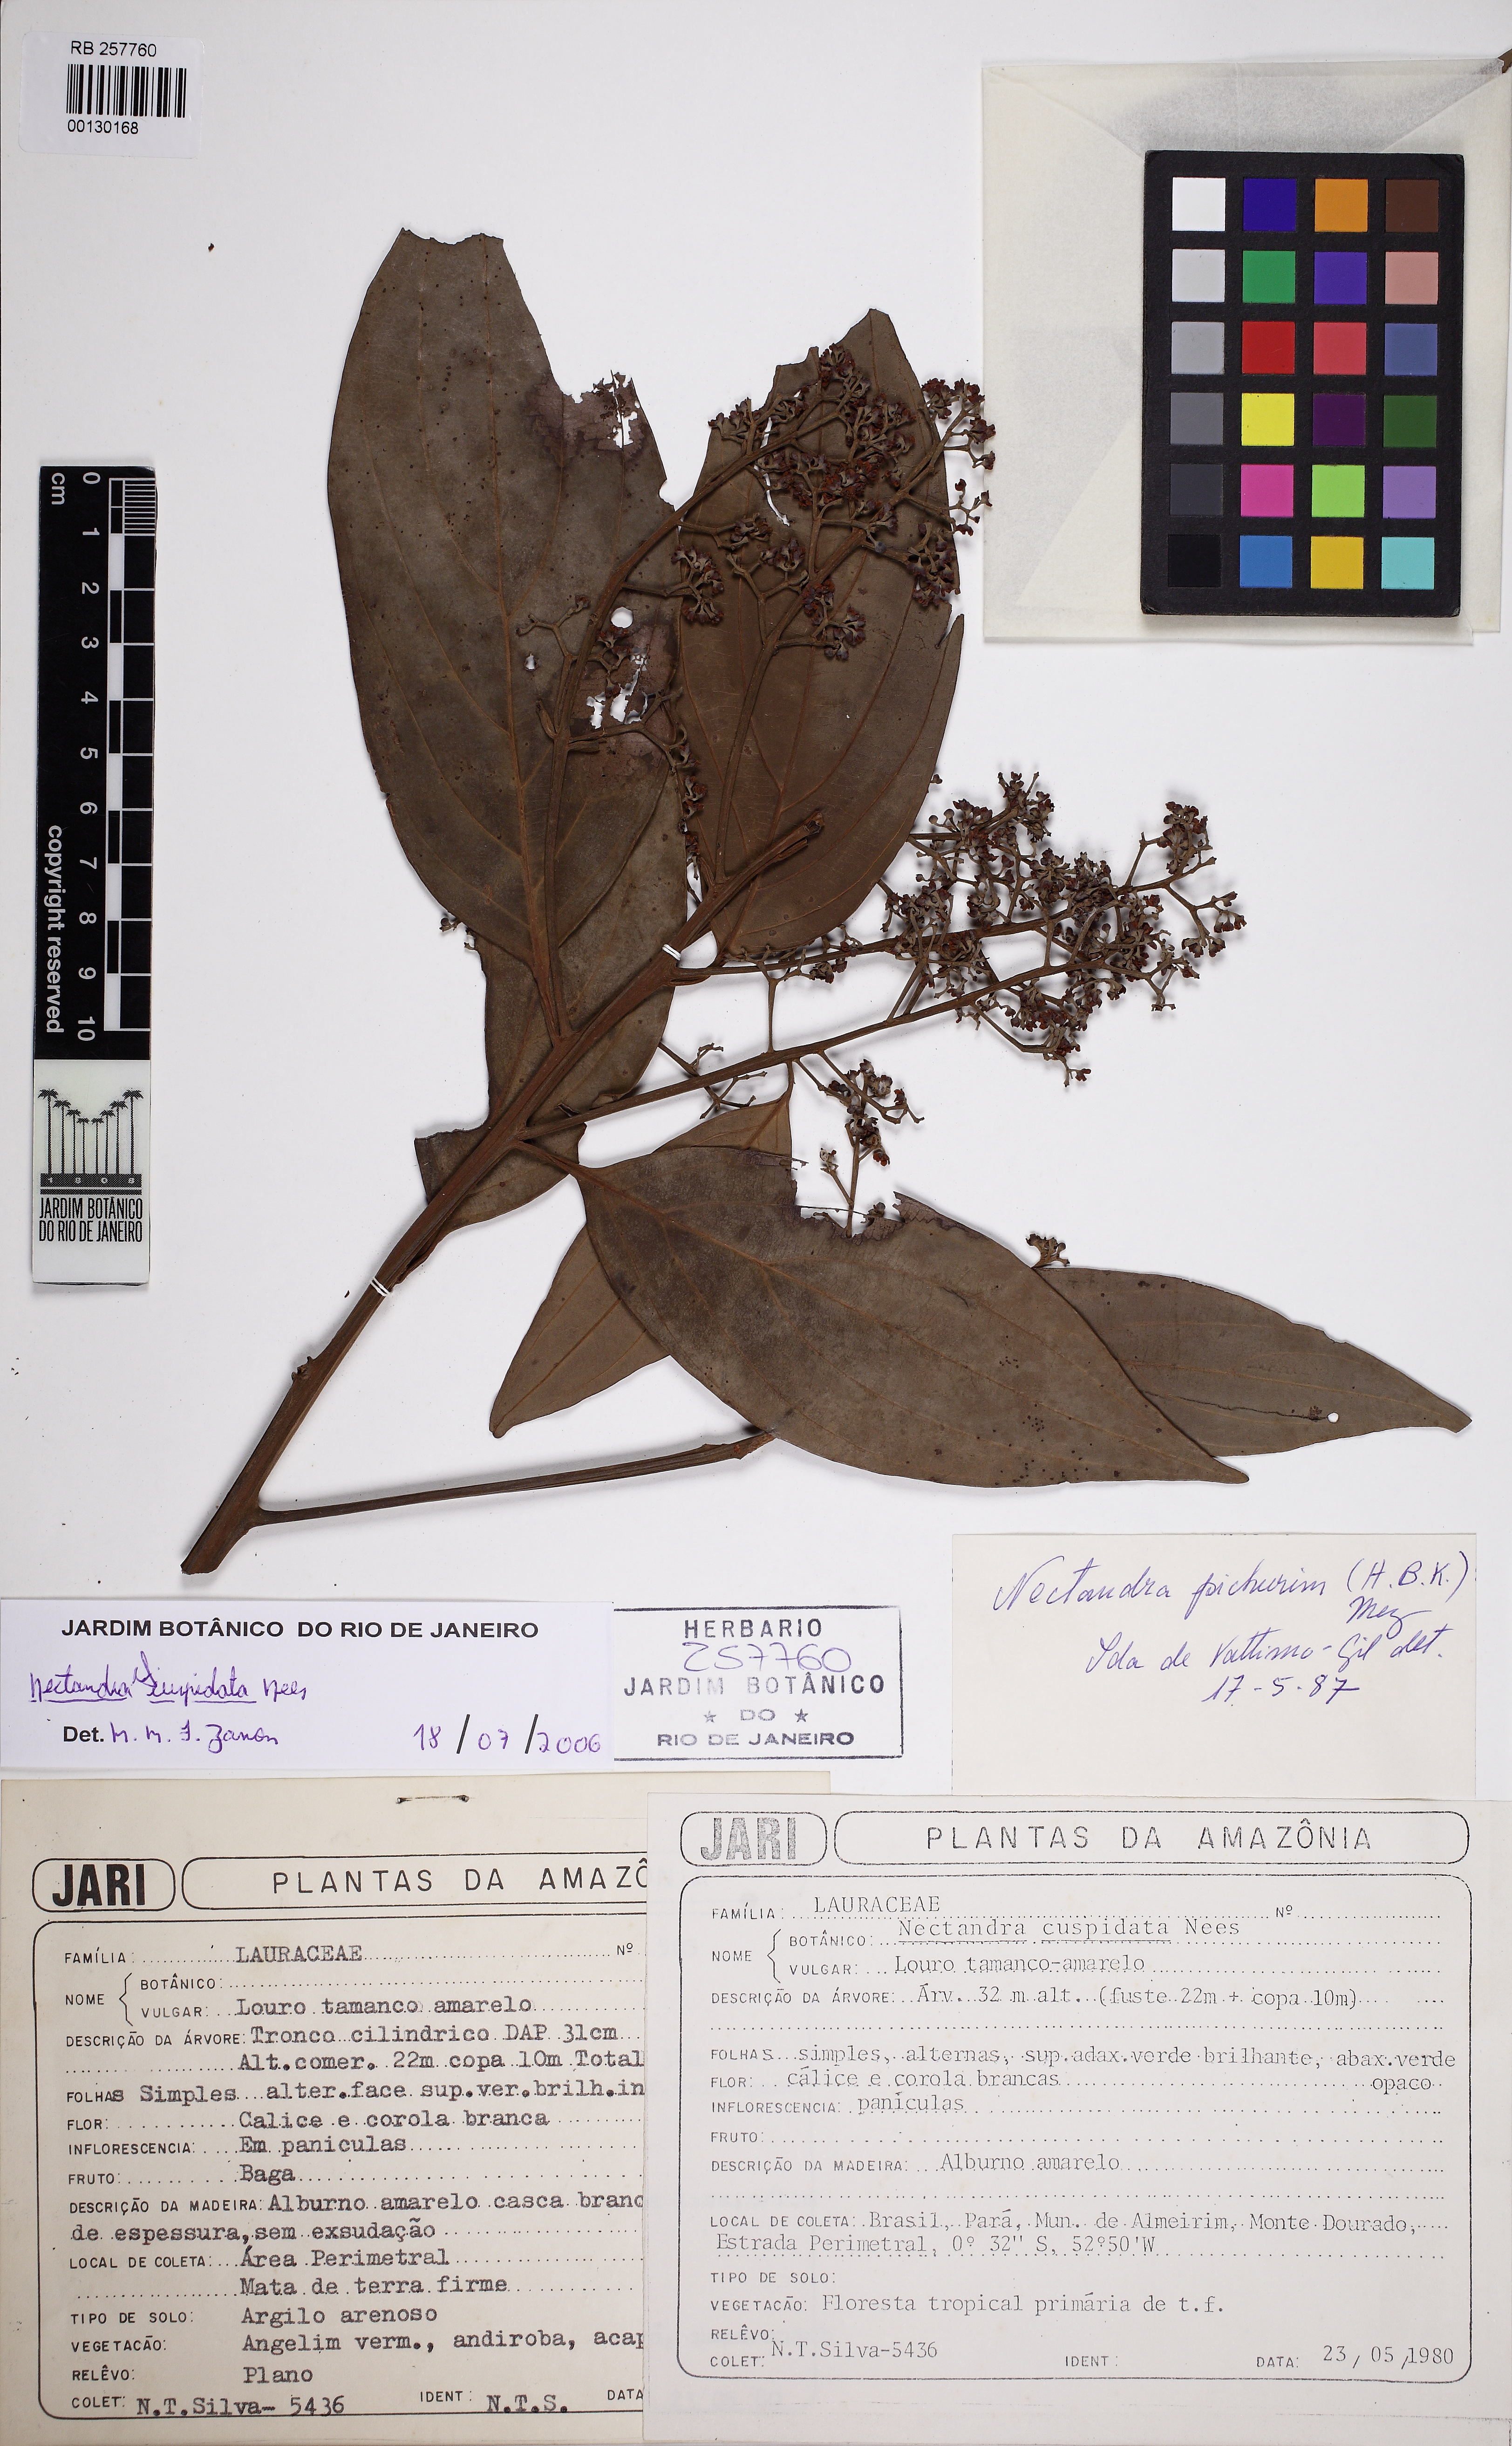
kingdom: Plantae
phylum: Tracheophyta
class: Magnoliopsida
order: Laurales
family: Lauraceae
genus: Nectandra
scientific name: Nectandra cuspidata
